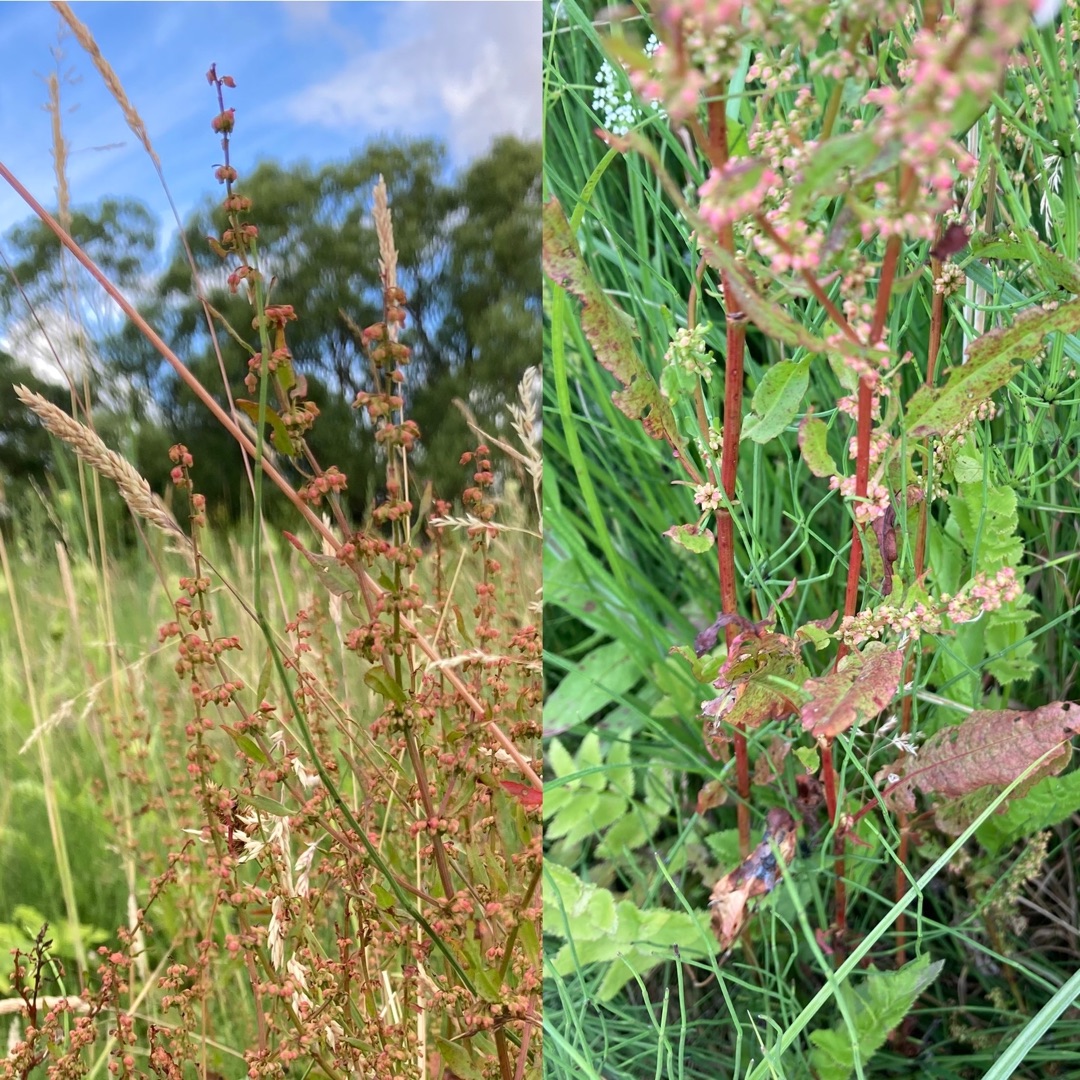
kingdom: Plantae
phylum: Tracheophyta
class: Magnoliopsida
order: Caryophyllales
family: Polygonaceae
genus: Rumex
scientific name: Rumex conglomeratus
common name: Nøgle-skræppe
